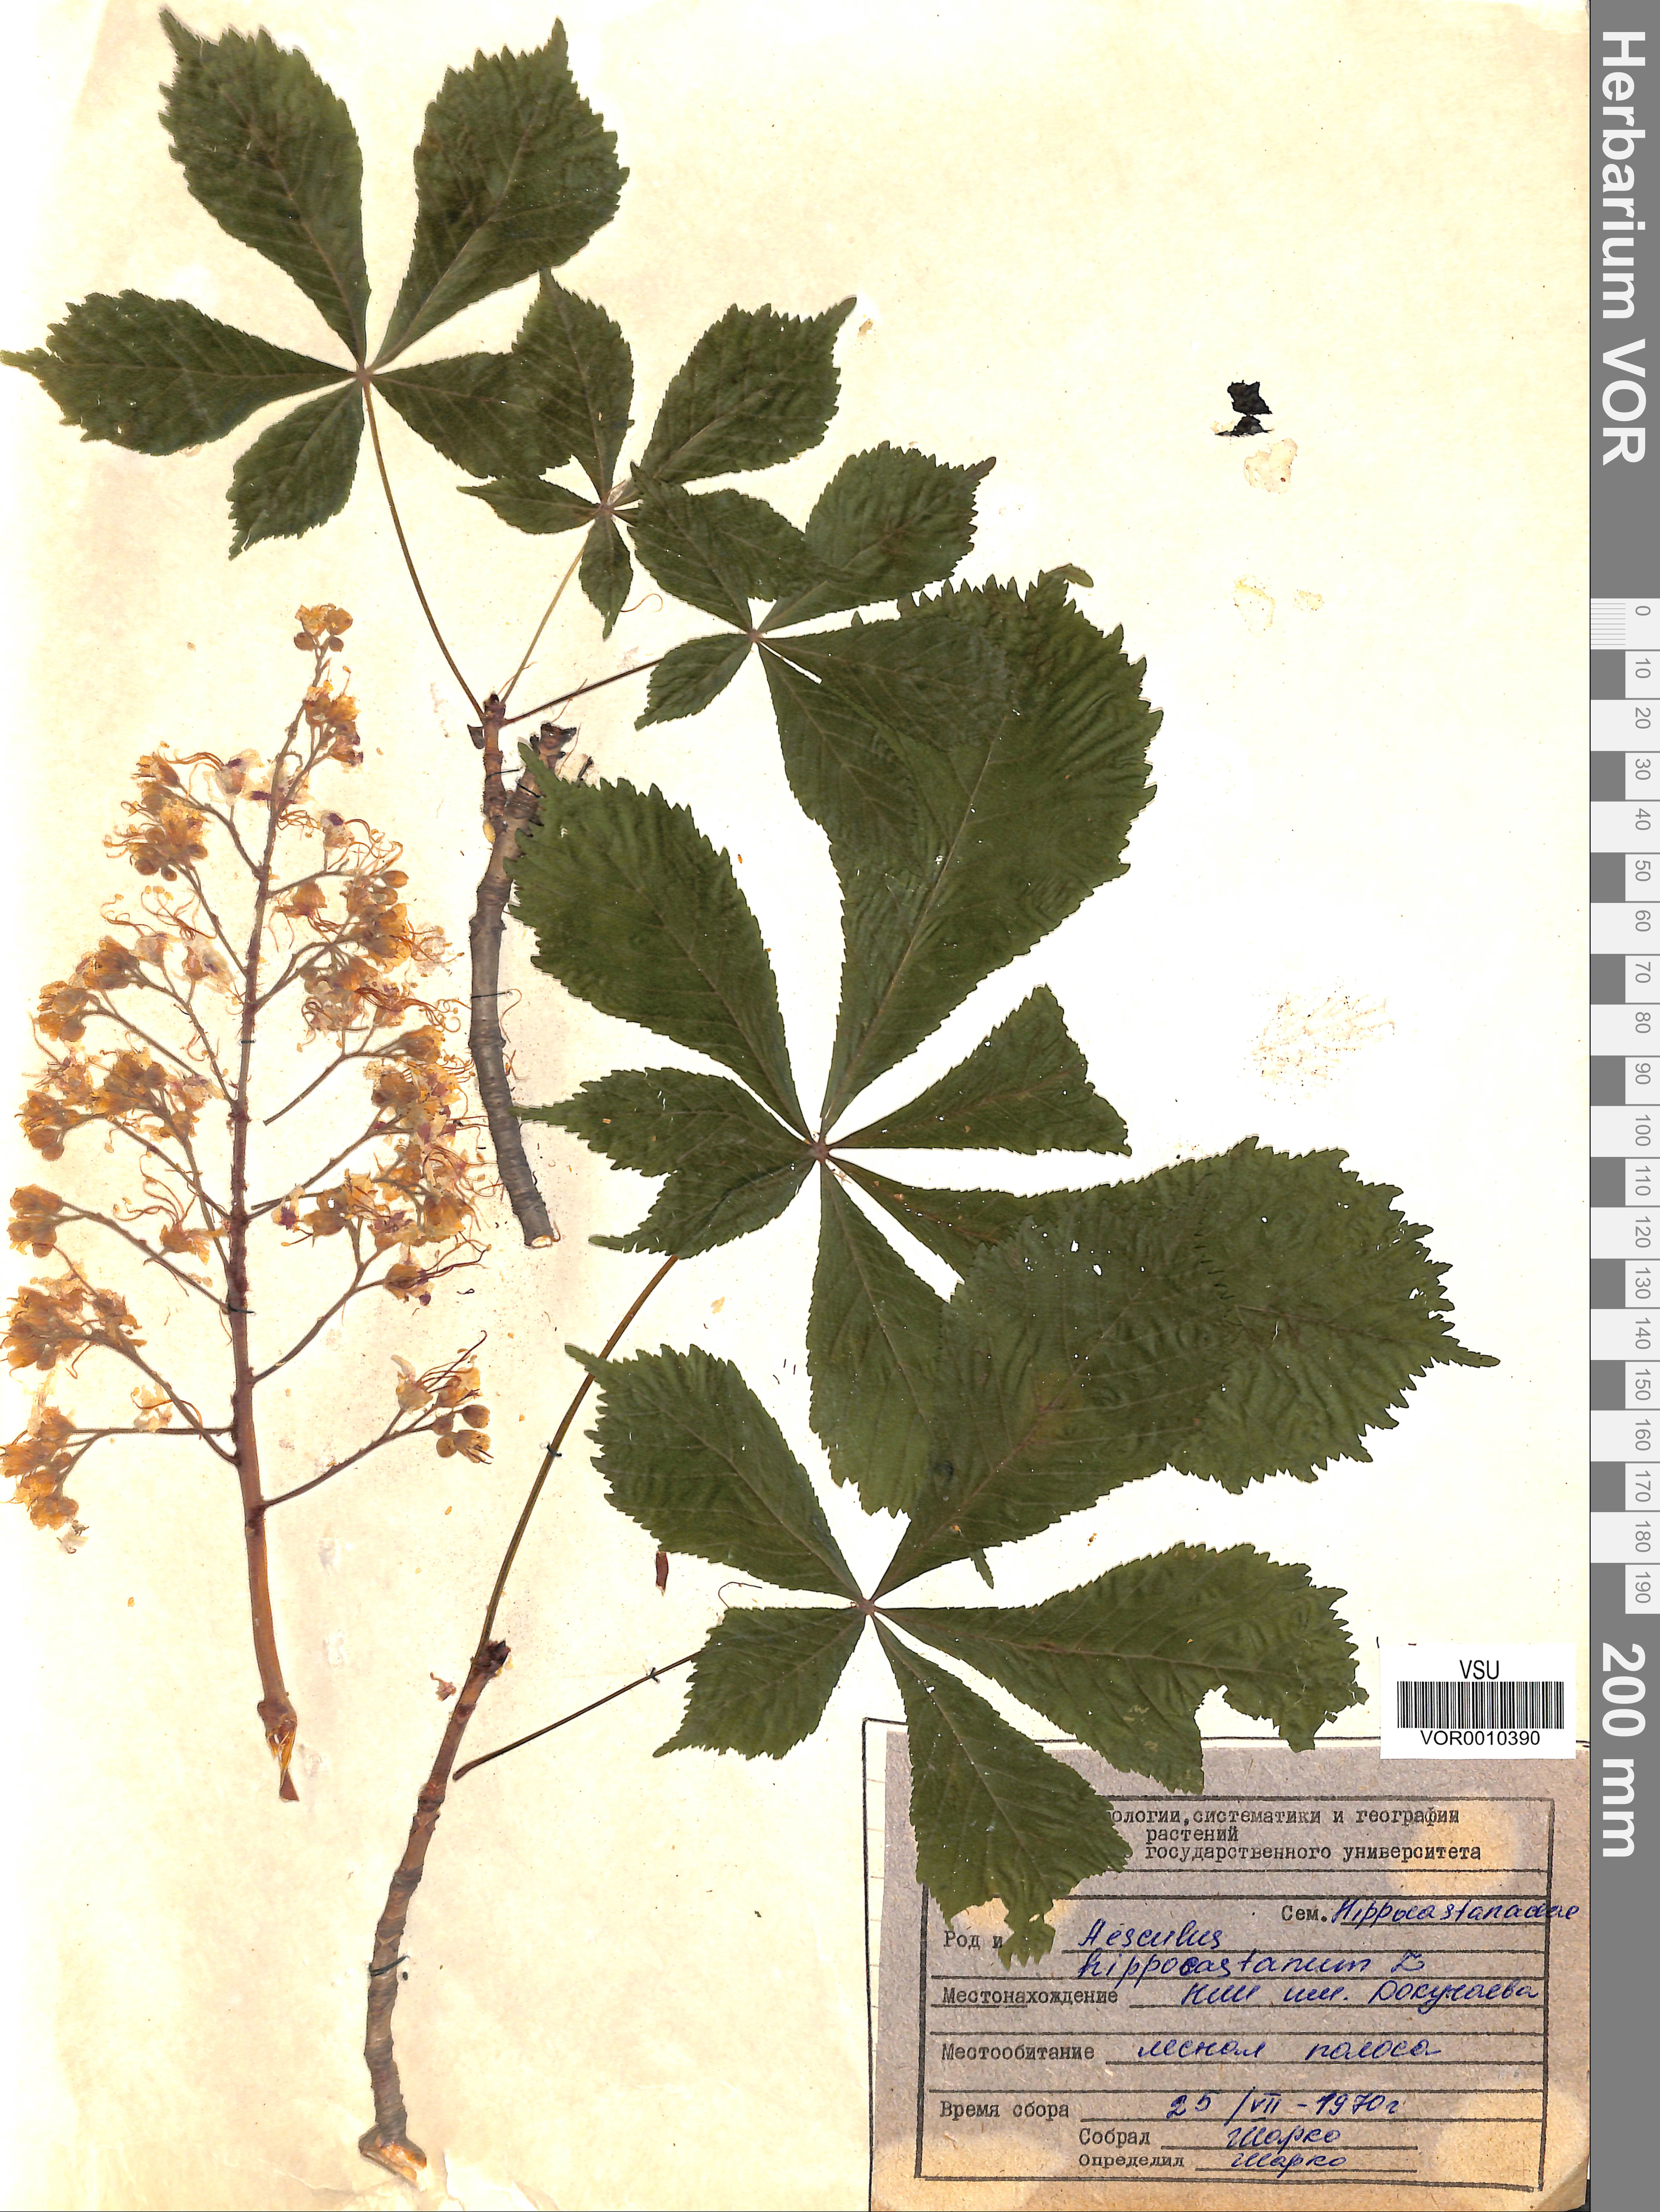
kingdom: Plantae
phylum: Tracheophyta
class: Magnoliopsida
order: Sapindales
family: Sapindaceae
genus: Aesculus
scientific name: Aesculus hippocastanum
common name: Horse-chestnut
